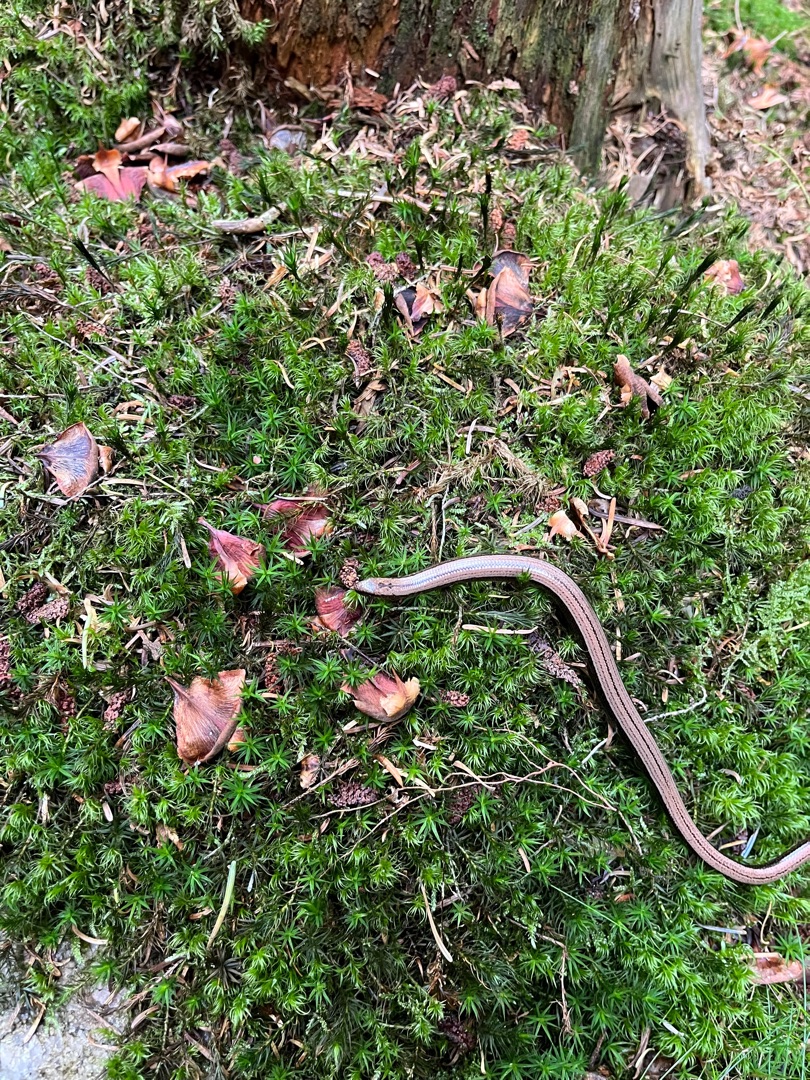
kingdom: Animalia
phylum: Chordata
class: Squamata
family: Anguidae
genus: Anguis
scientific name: Anguis fragilis
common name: Stålorm
